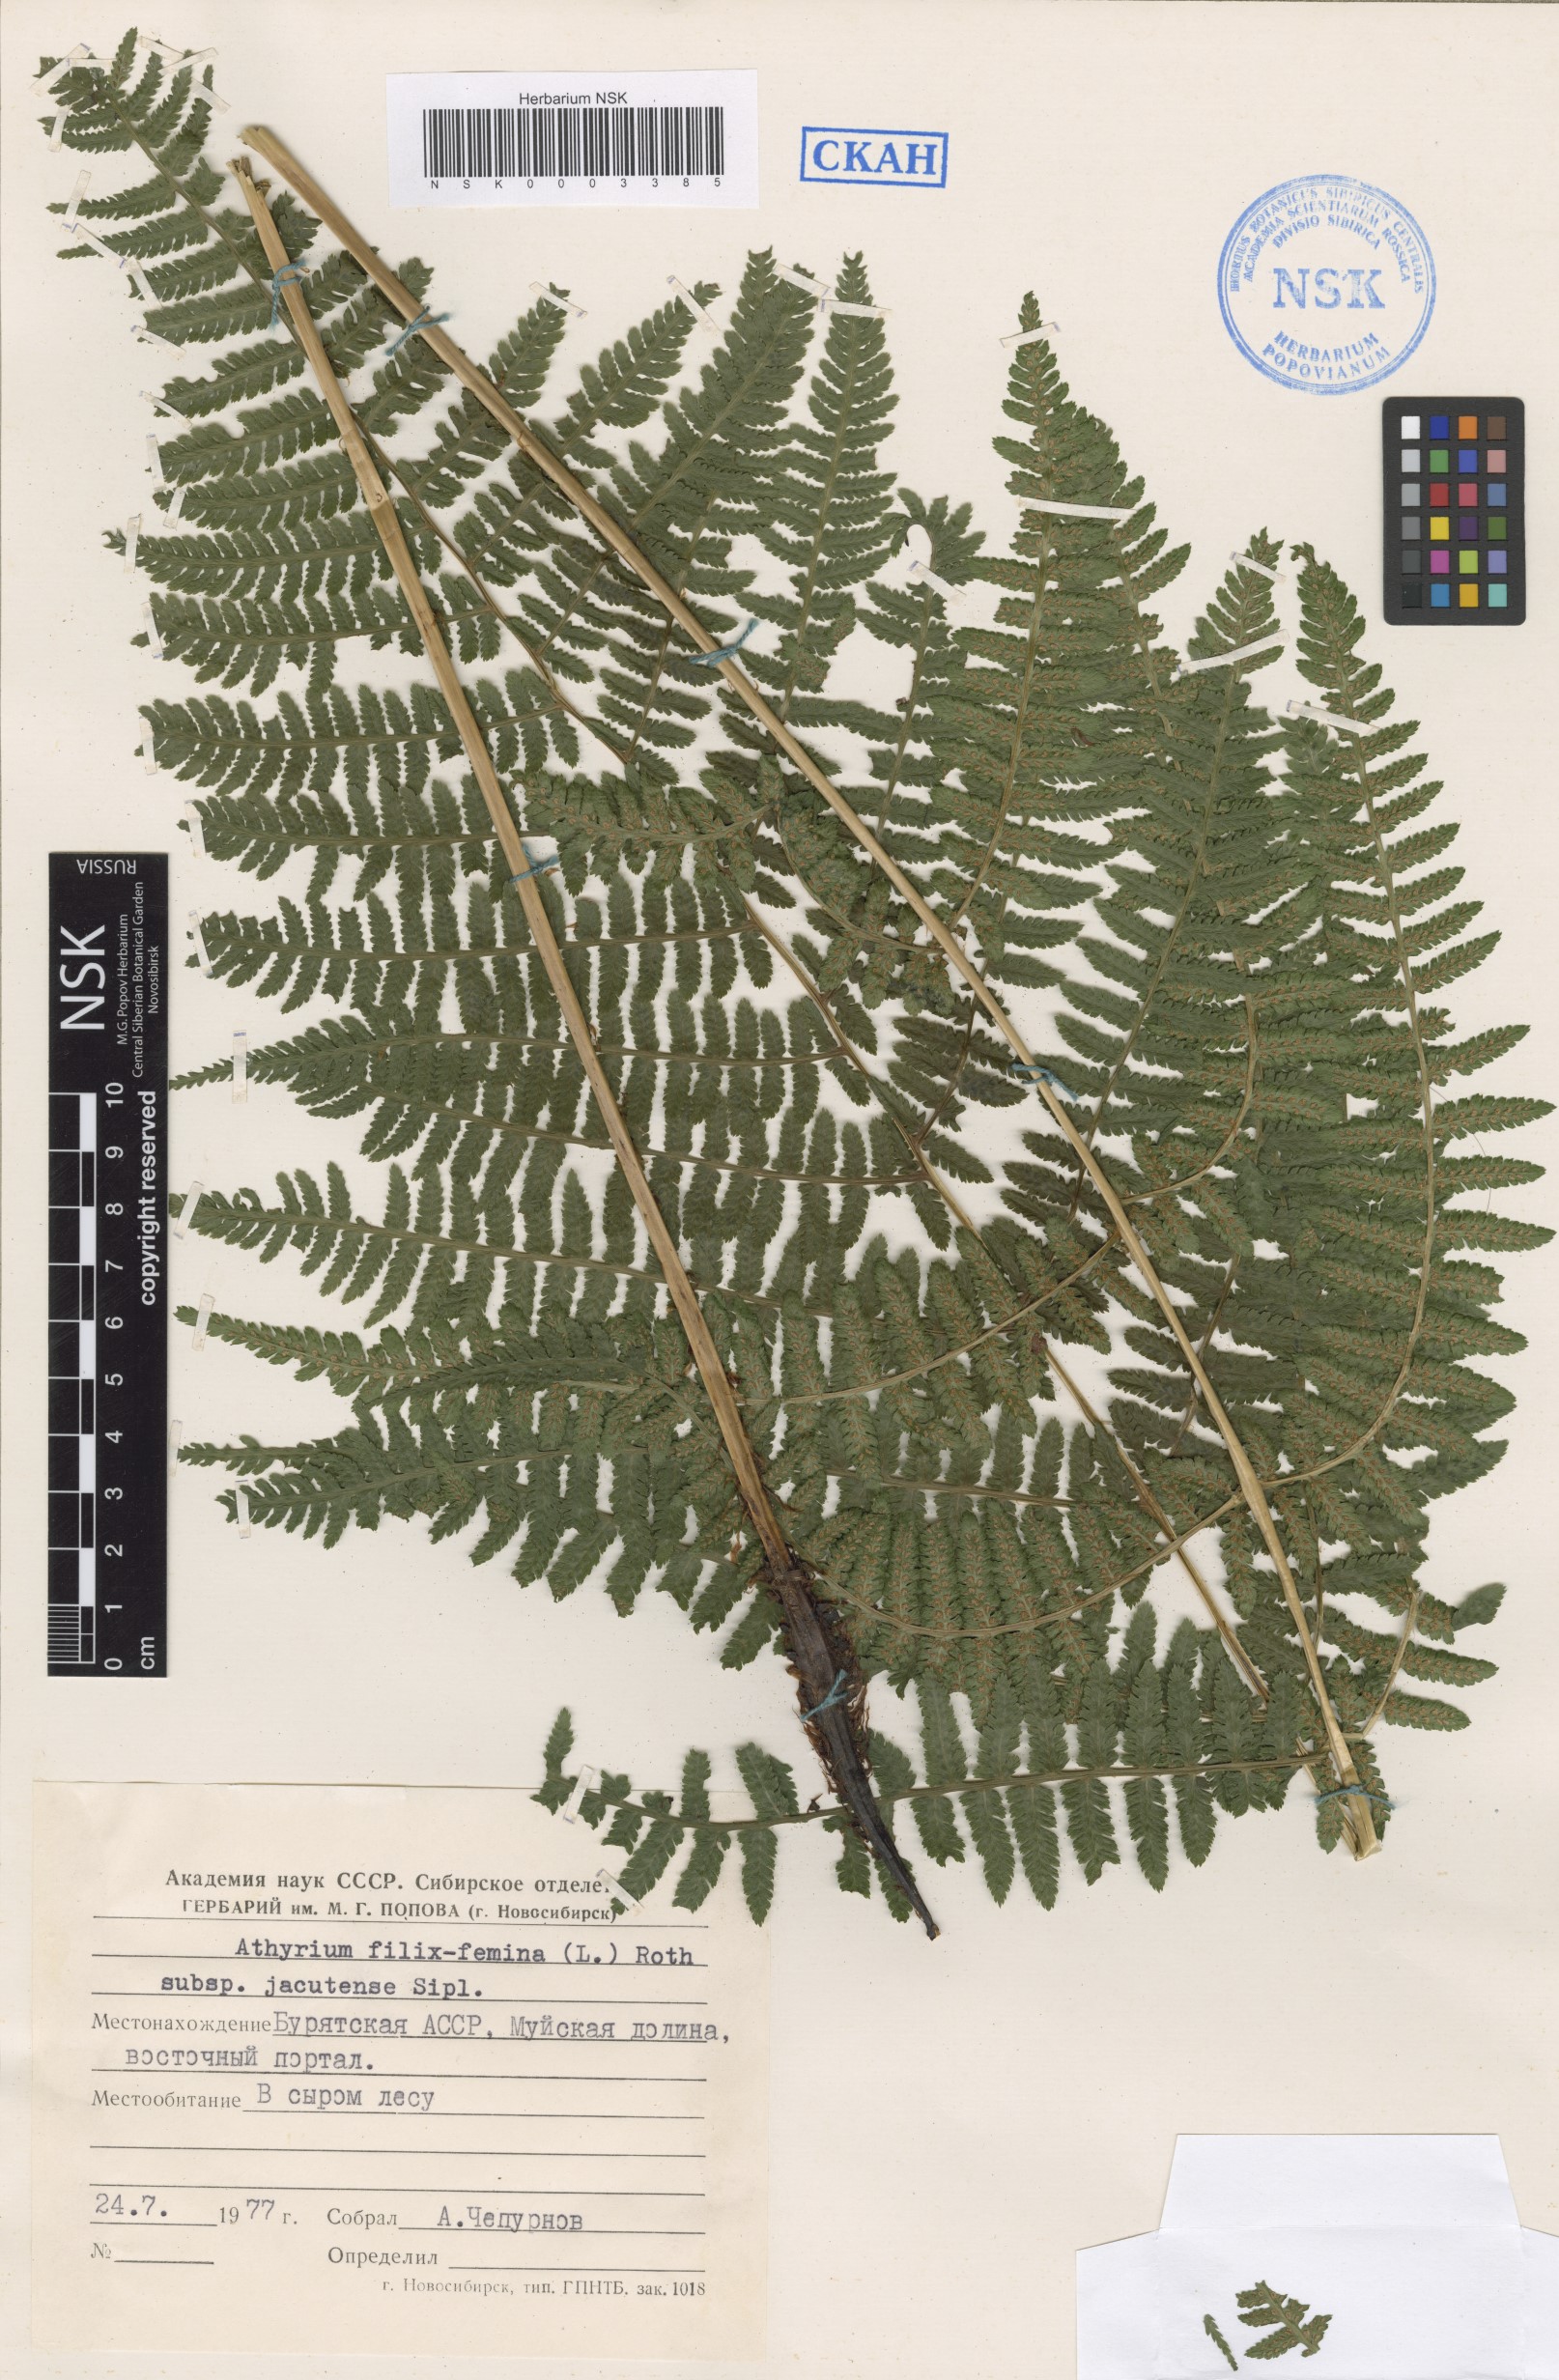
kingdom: Plantae
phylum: Tracheophyta
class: Polypodiopsida
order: Polypodiales
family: Athyriaceae
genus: Athyrium
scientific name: Athyrium monomachii
